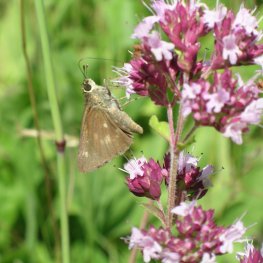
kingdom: Animalia
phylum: Arthropoda
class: Insecta
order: Lepidoptera
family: Hesperiidae
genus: Polites
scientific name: Polites egeremet
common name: Northern Broken-Dash
